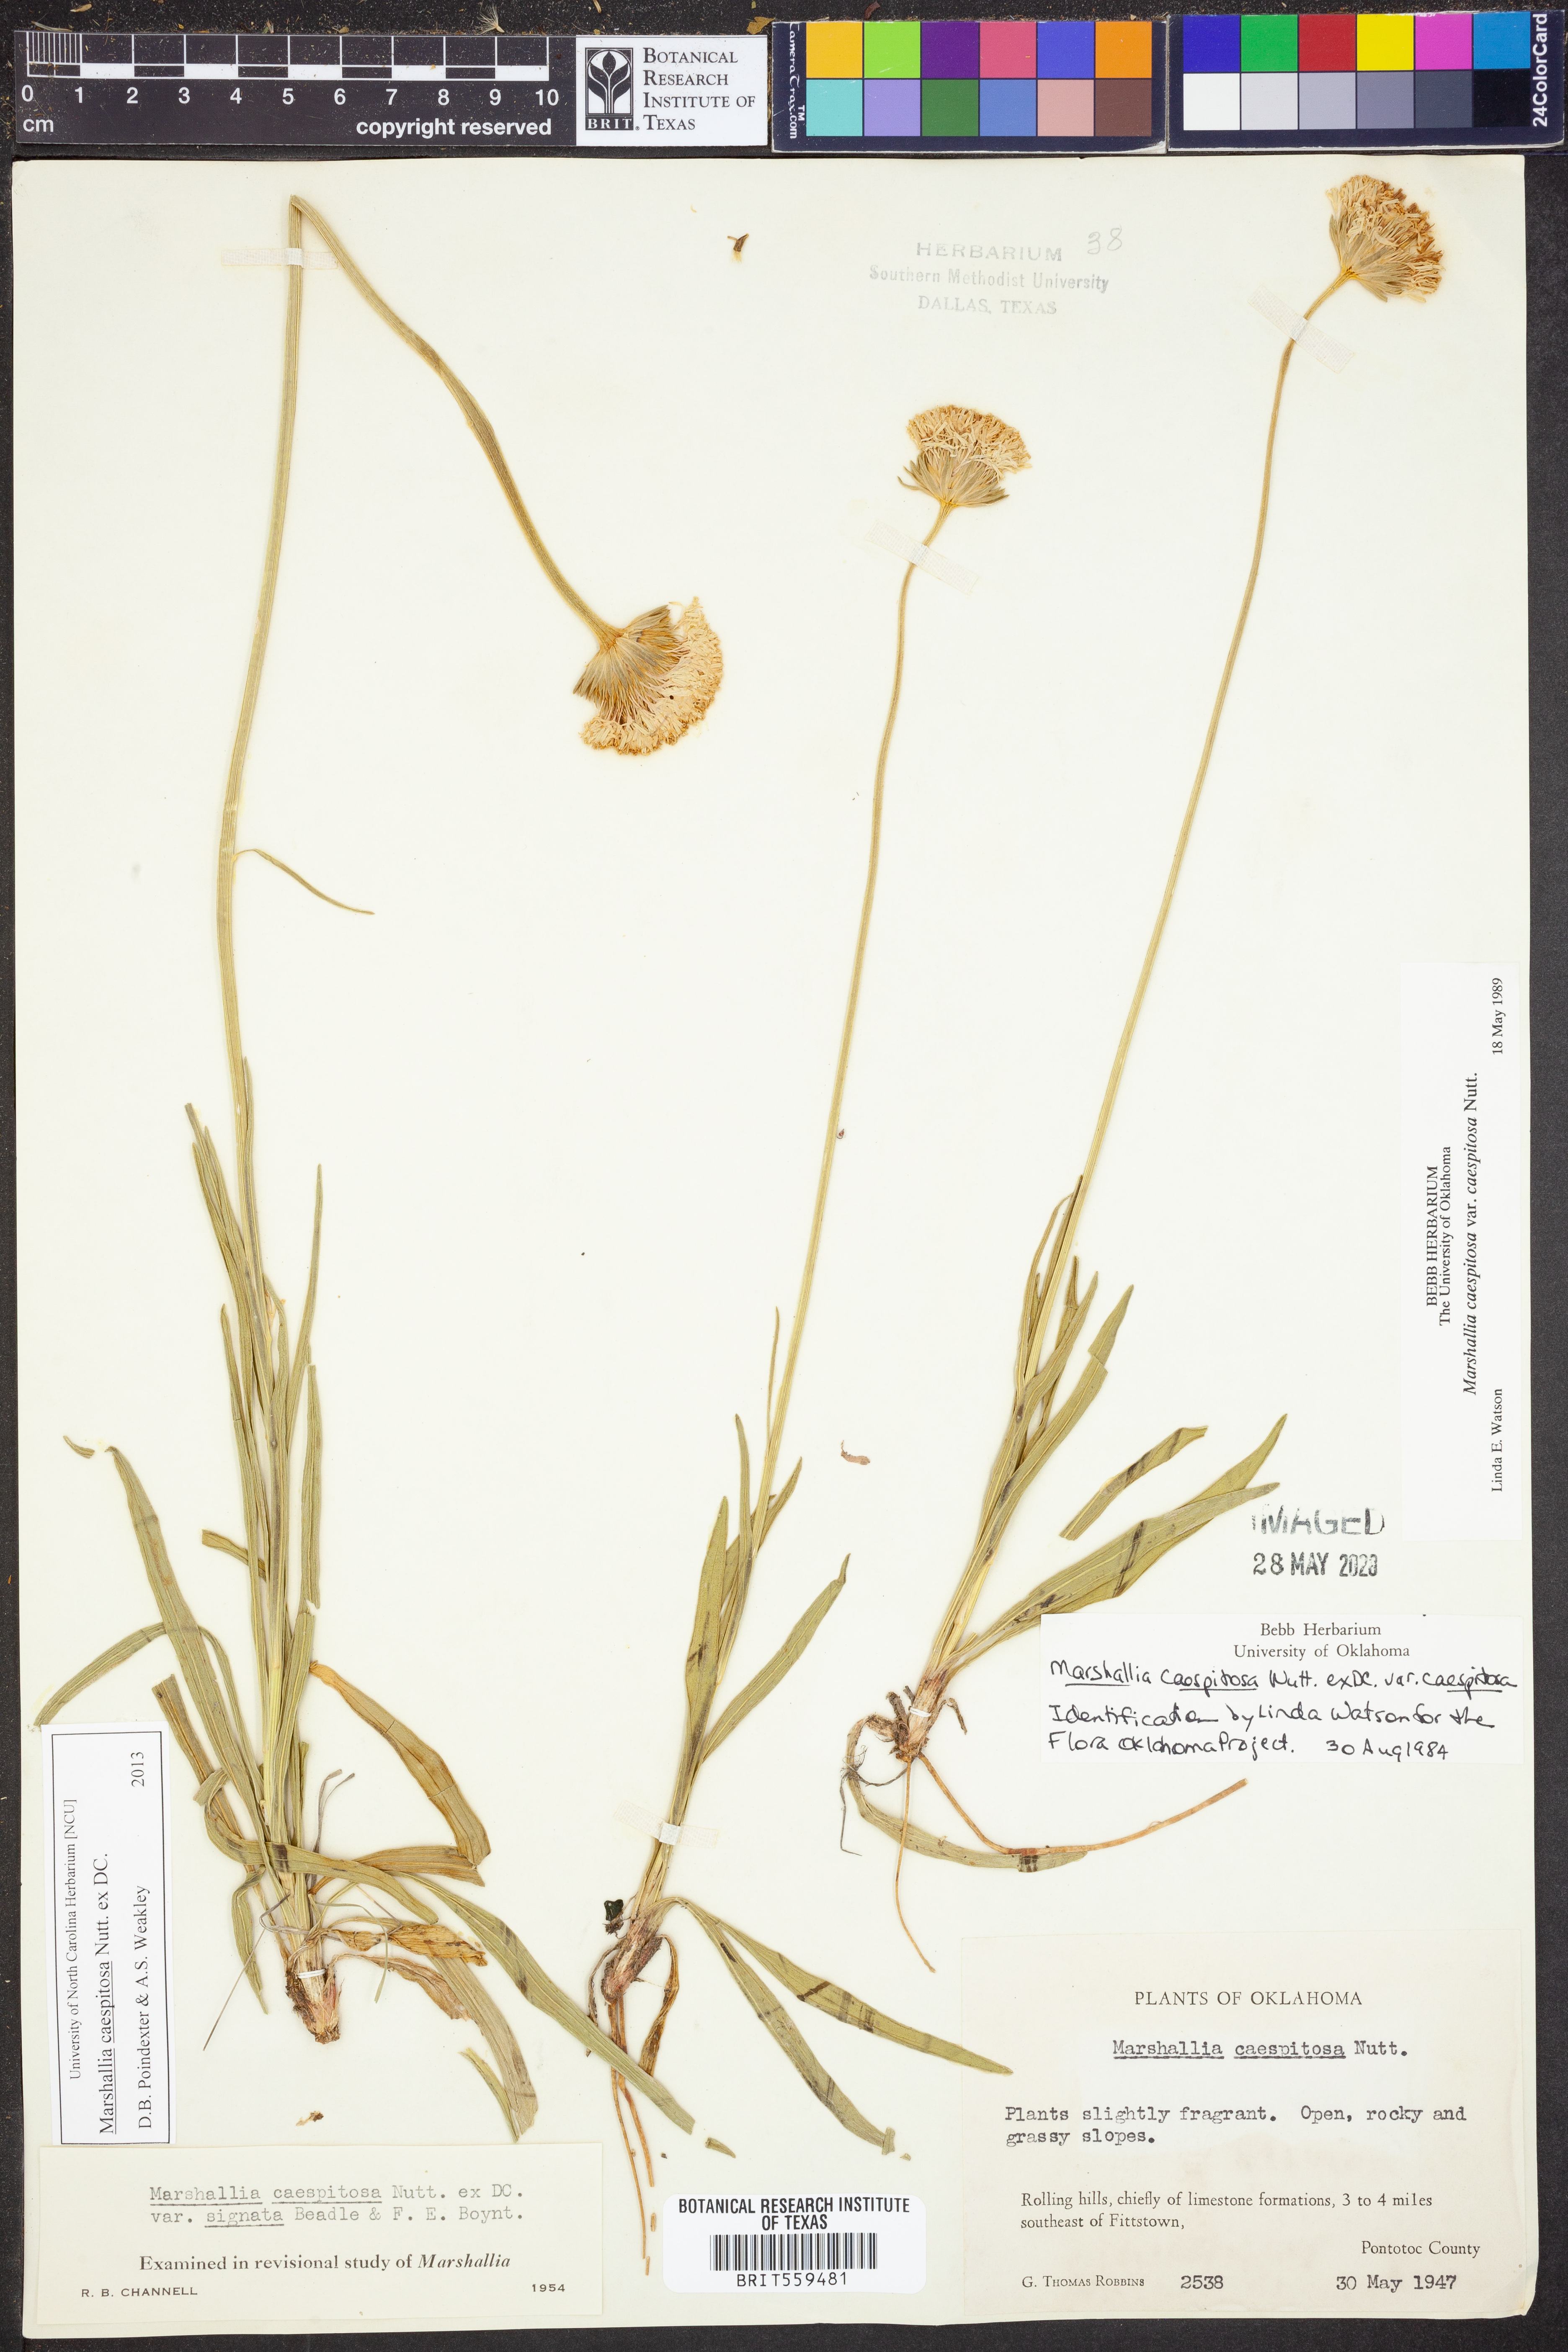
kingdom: Plantae
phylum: Tracheophyta
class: Magnoliopsida
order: Asterales
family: Asteraceae
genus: Marshallia
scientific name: Marshallia caespitosa
